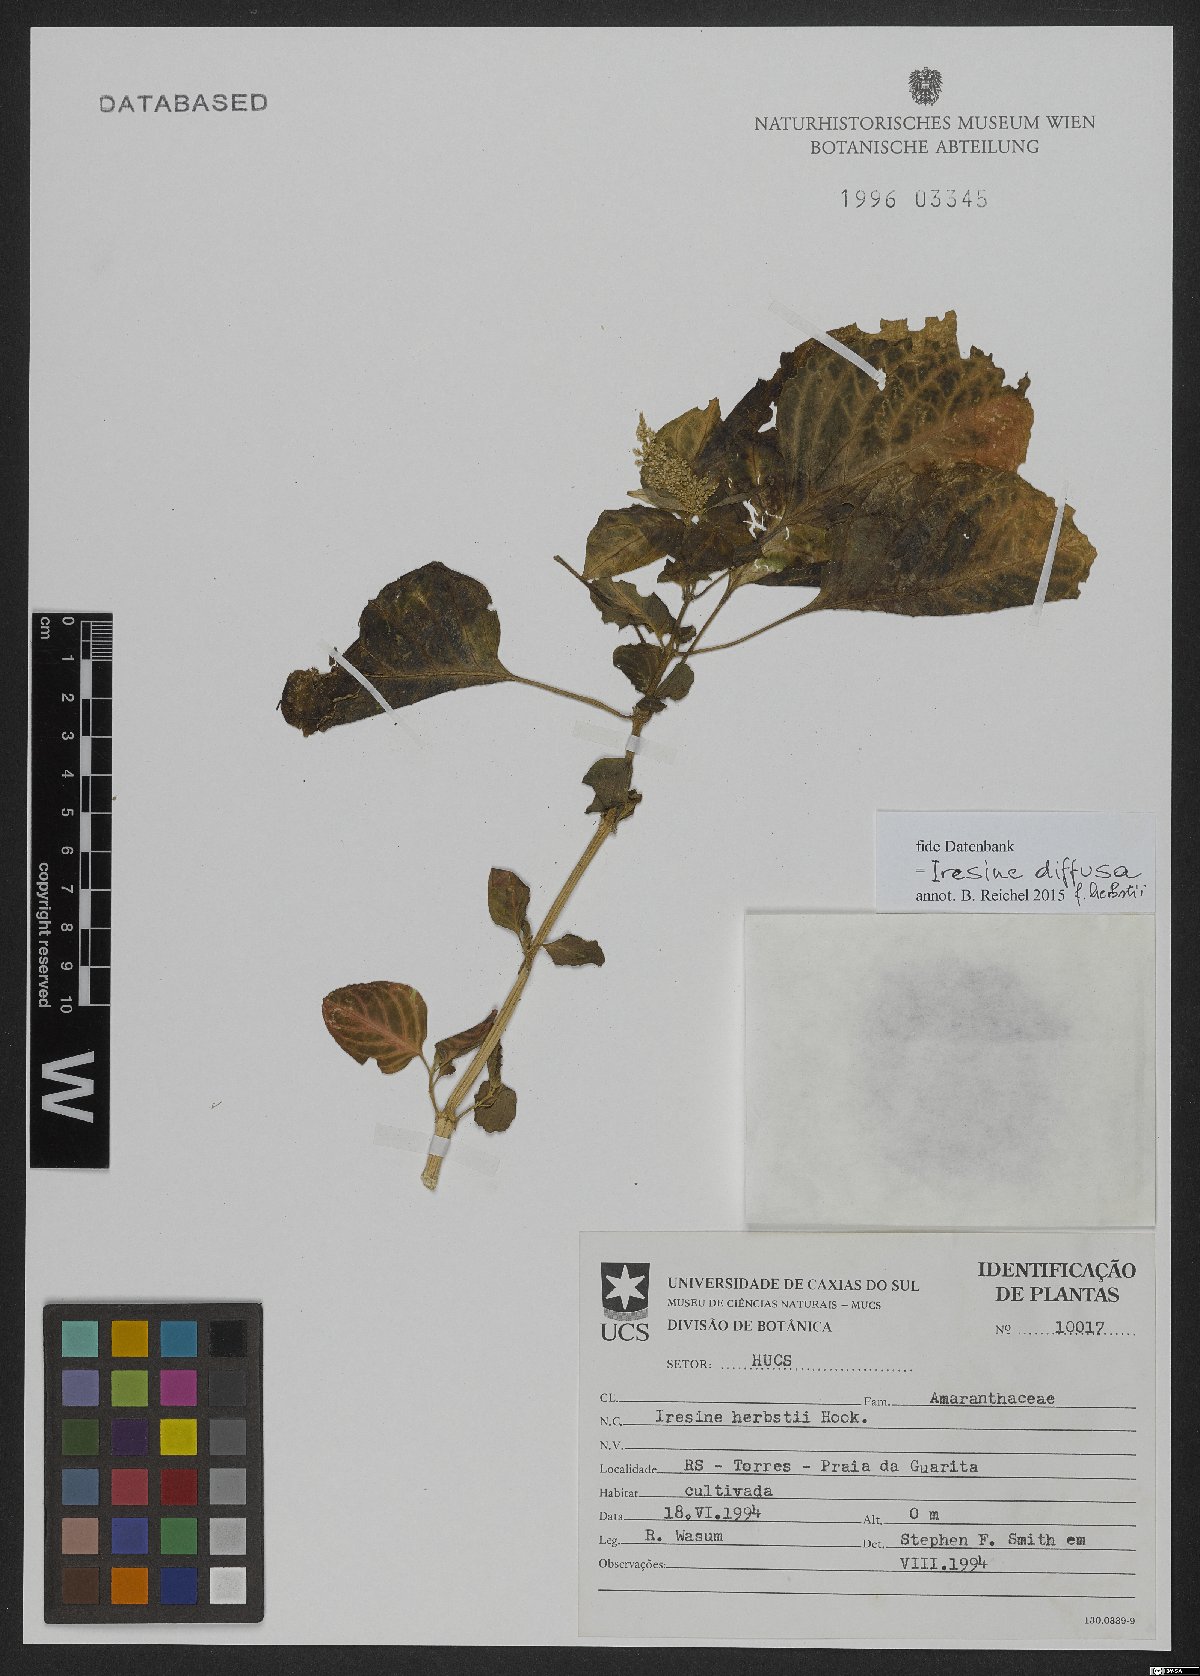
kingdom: Plantae
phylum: Tracheophyta
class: Magnoliopsida
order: Caryophyllales
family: Amaranthaceae
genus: Iresine
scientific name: Iresine diffusa
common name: Juba's-bush
